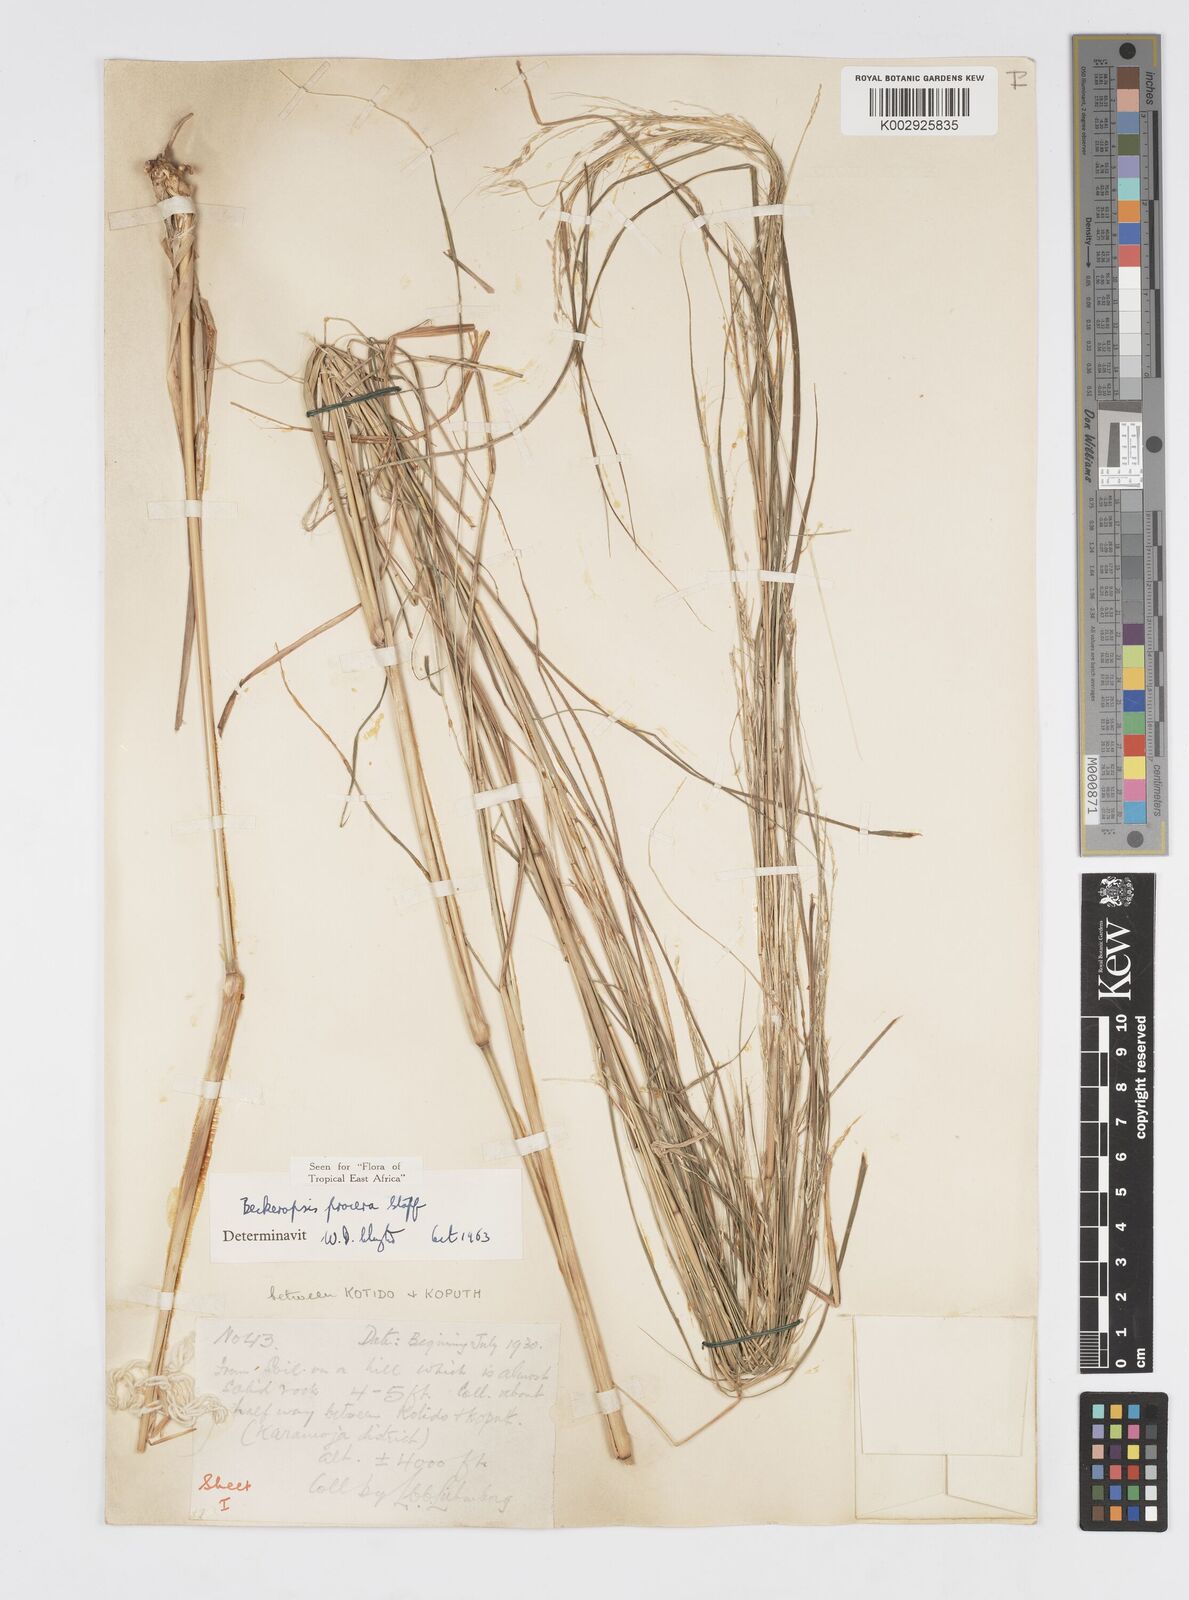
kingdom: Plantae
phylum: Tracheophyta
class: Liliopsida
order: Poales
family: Poaceae
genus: Cenchrus
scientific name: Cenchrus procerus
